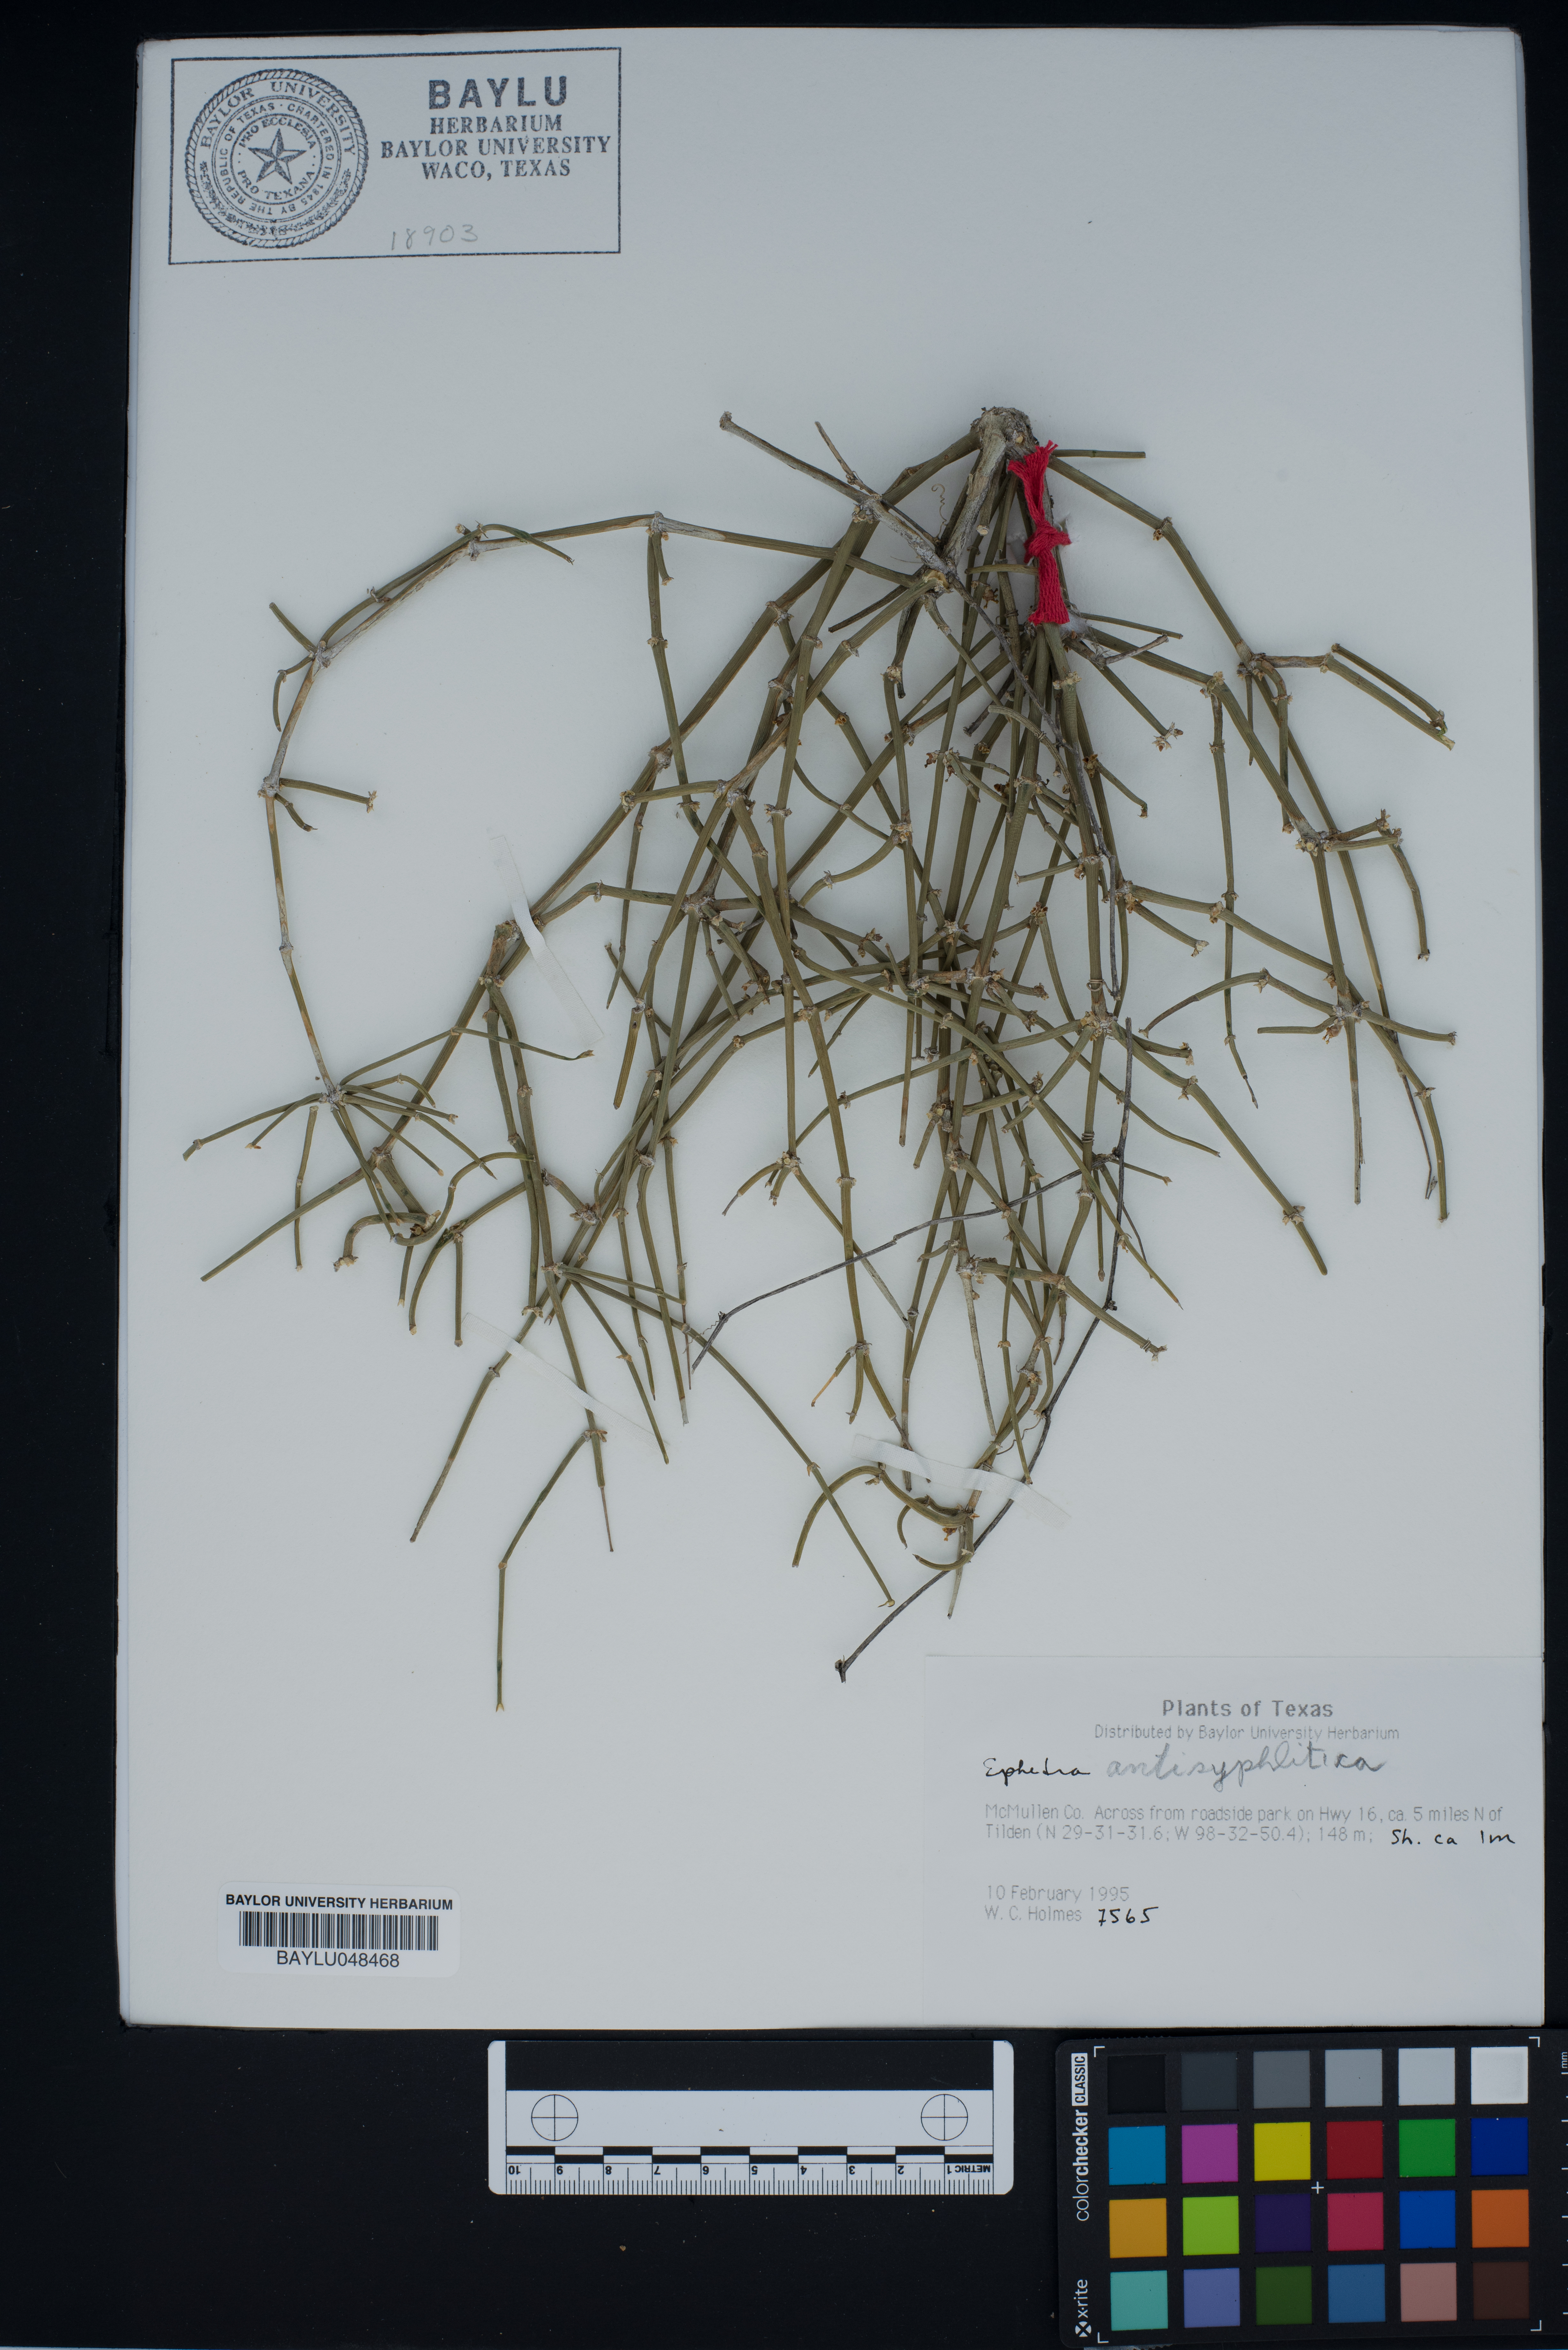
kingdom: Plantae
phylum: Tracheophyta
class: Gnetopsida
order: Ephedrales
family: Ephedraceae
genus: Ephedra
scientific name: Ephedra antisyphilitica
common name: Clipweed
